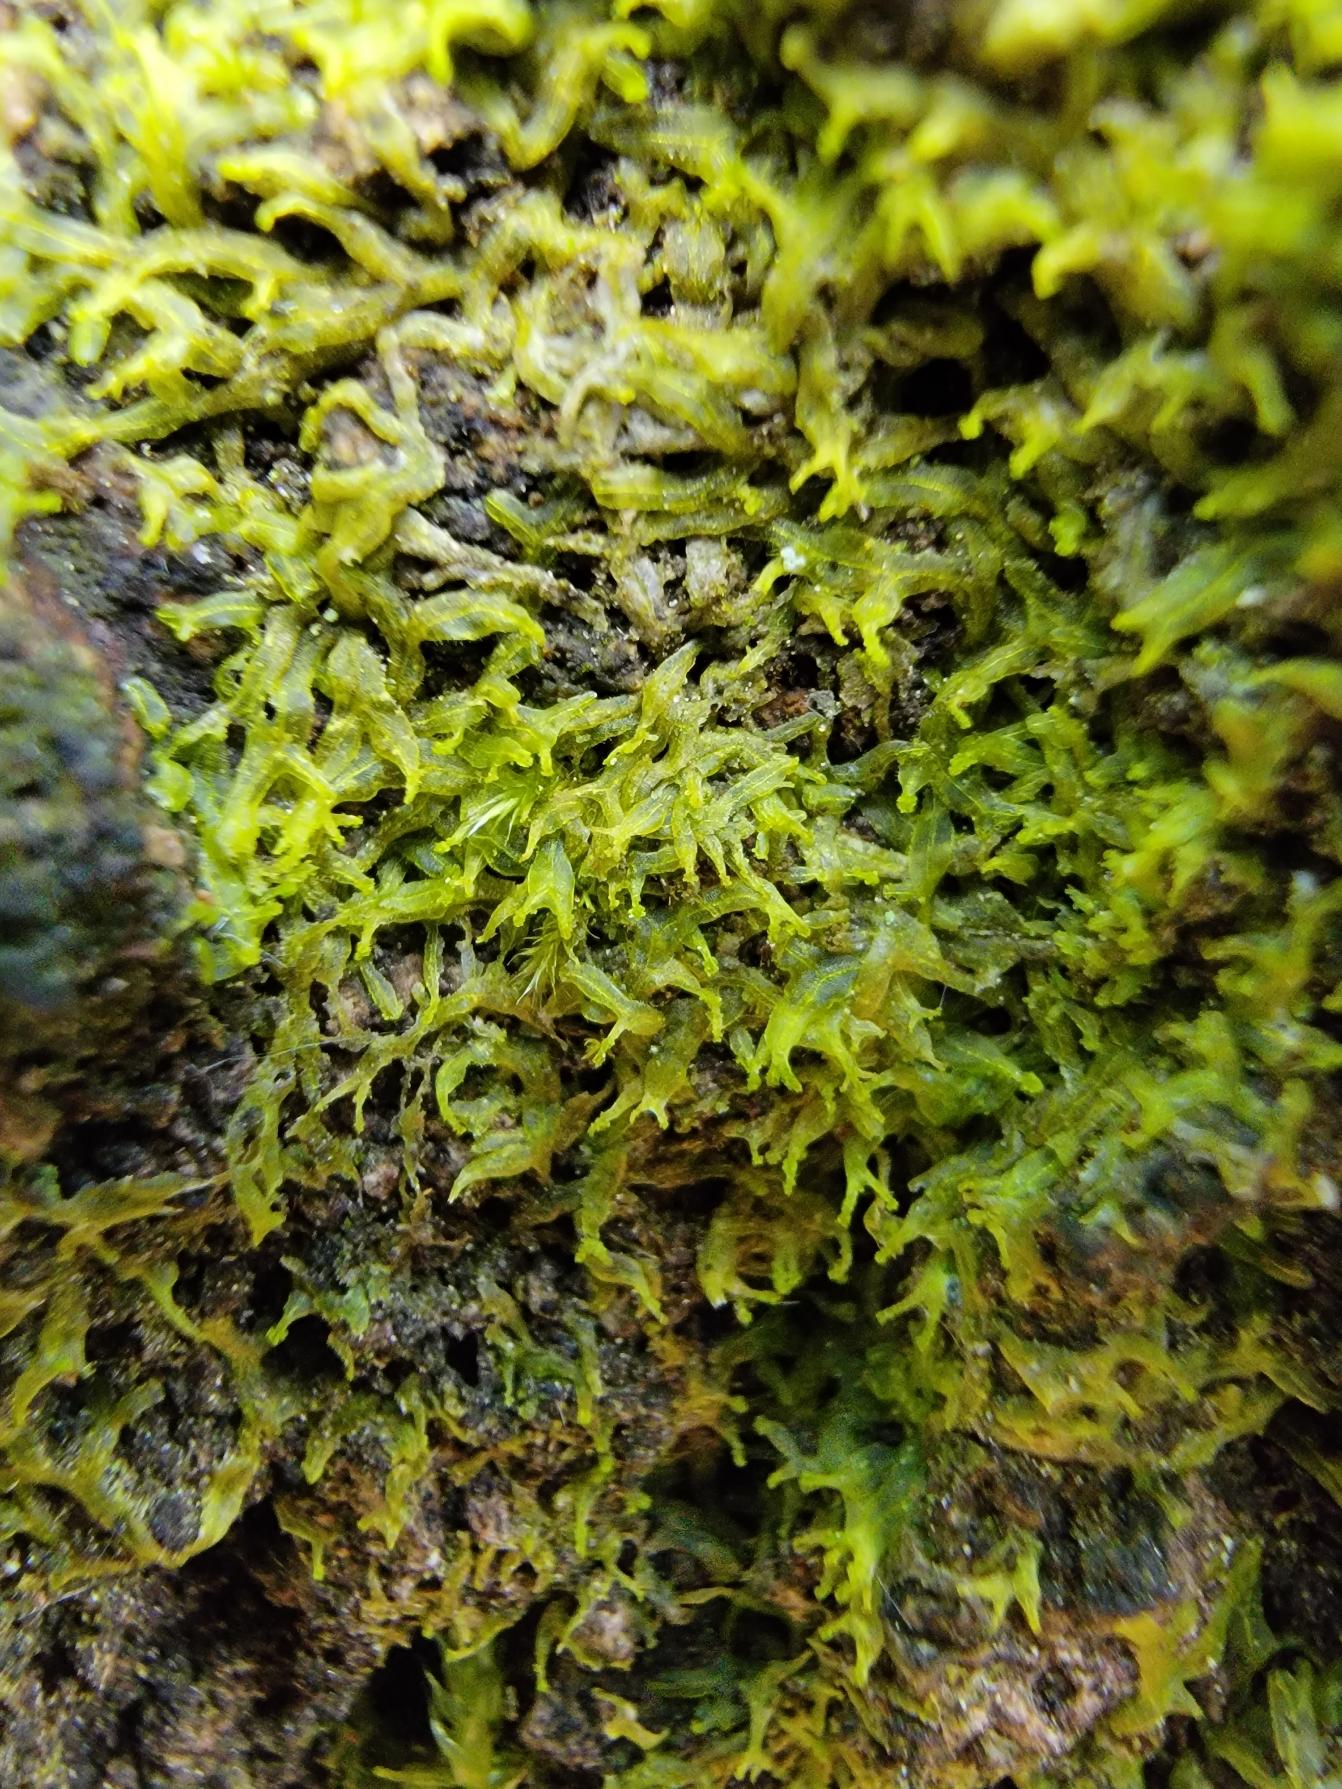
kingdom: Plantae
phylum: Marchantiophyta
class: Jungermanniopsida
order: Metzgeriales
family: Aneuraceae
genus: Riccardia
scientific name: Riccardia palmata
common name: Blågrøn gaffelløv
